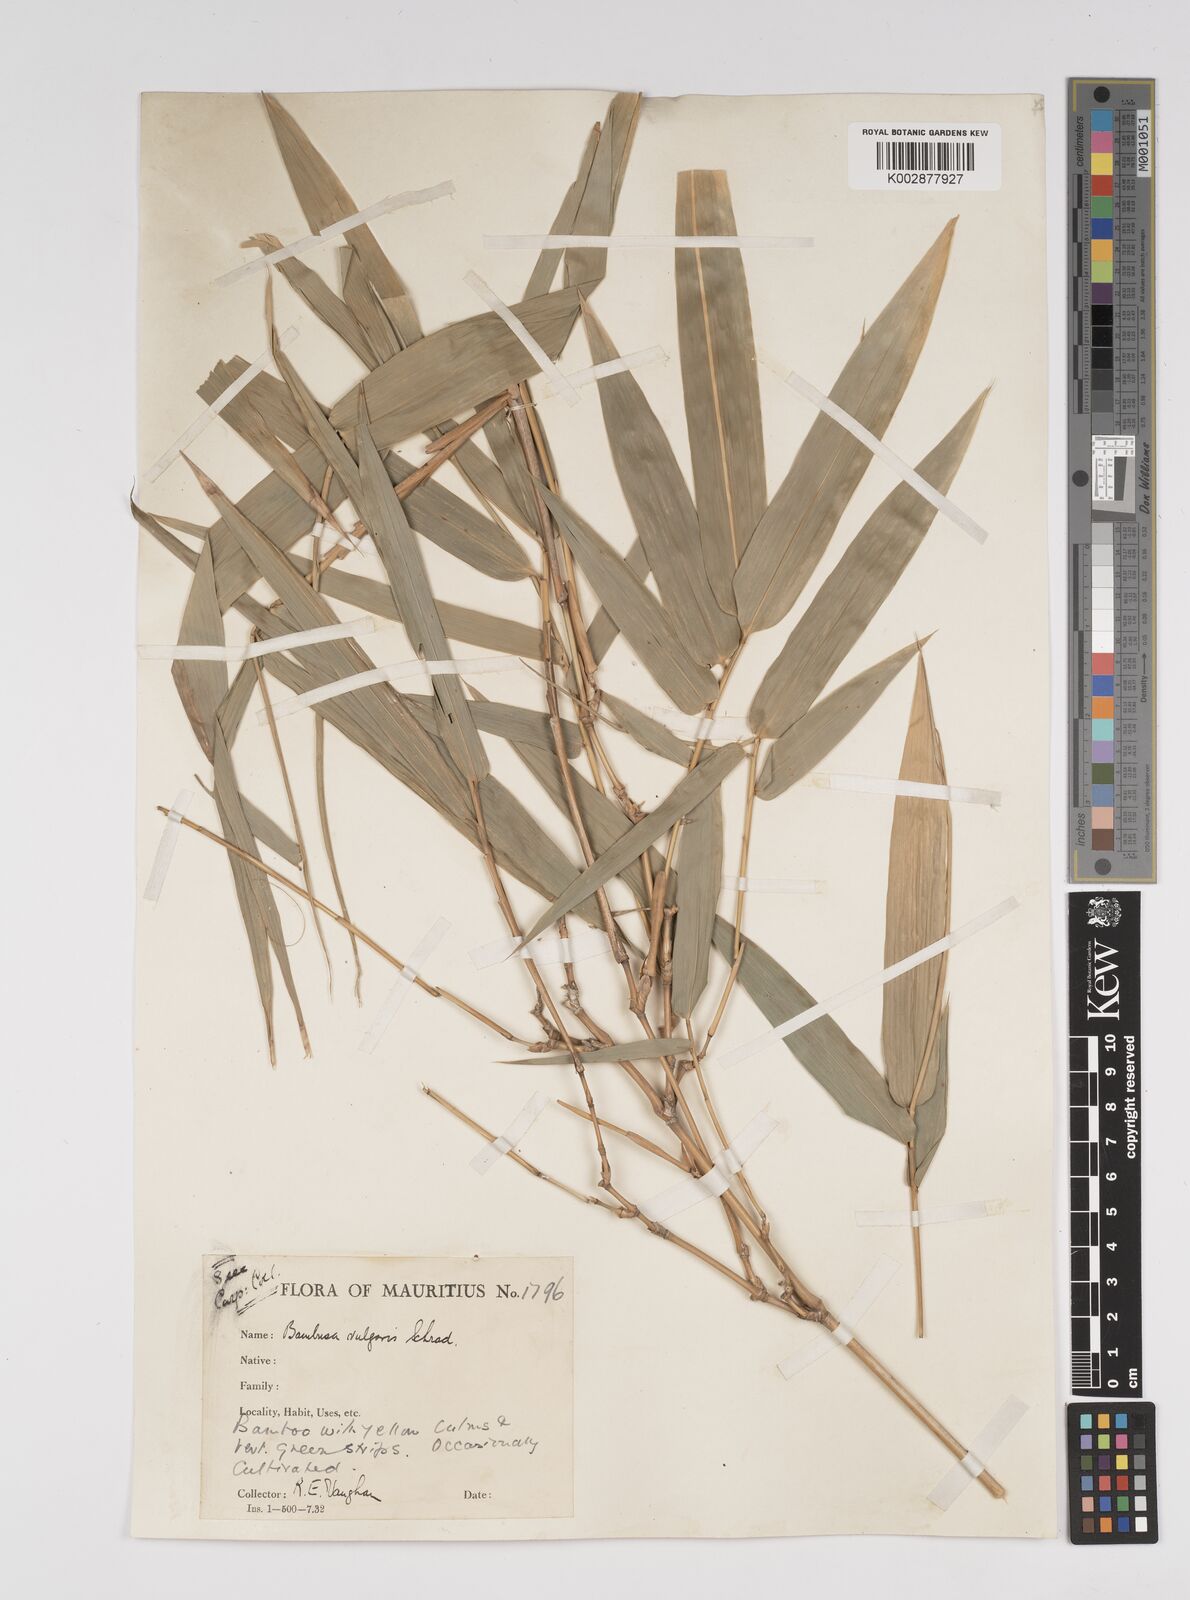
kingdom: Plantae
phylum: Tracheophyta
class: Liliopsida
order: Poales
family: Poaceae
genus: Bambusa
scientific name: Bambusa vulgaris
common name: Common bamboo
